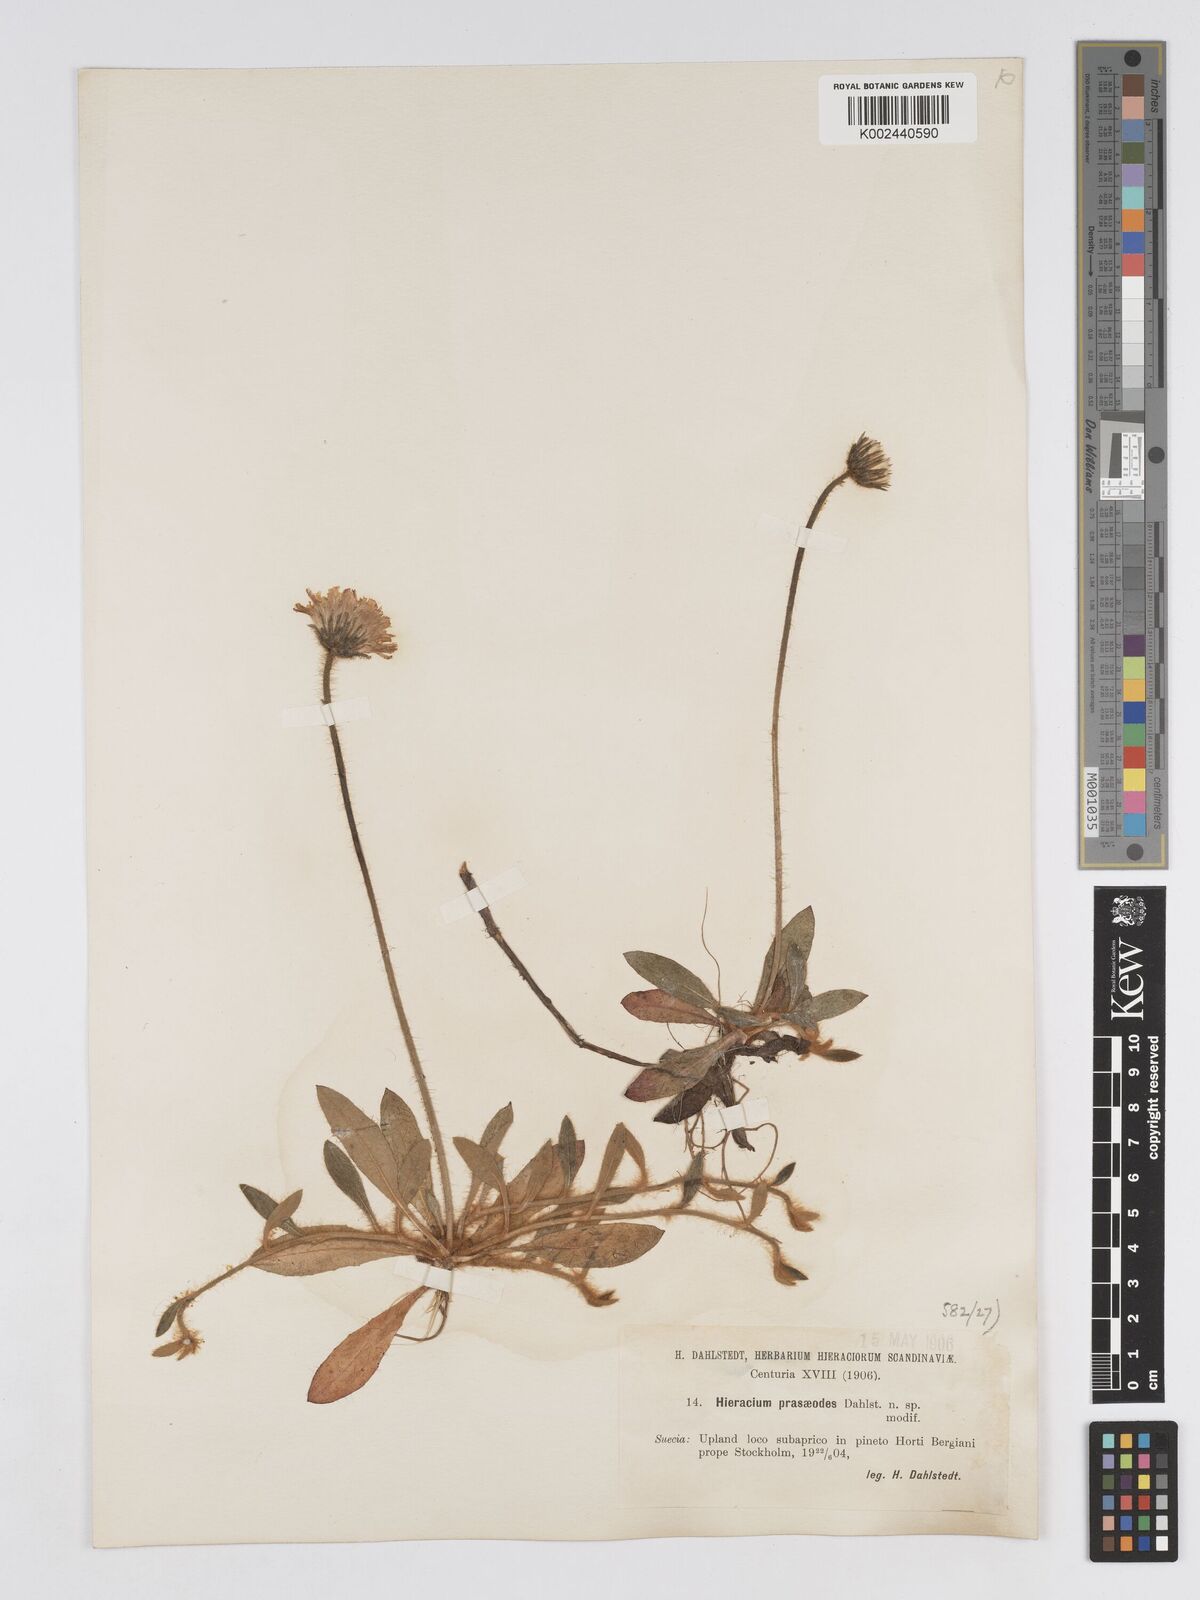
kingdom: Plantae
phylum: Tracheophyta
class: Magnoliopsida
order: Asterales
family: Asteraceae
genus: Pilosella
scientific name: Pilosella longisquama
